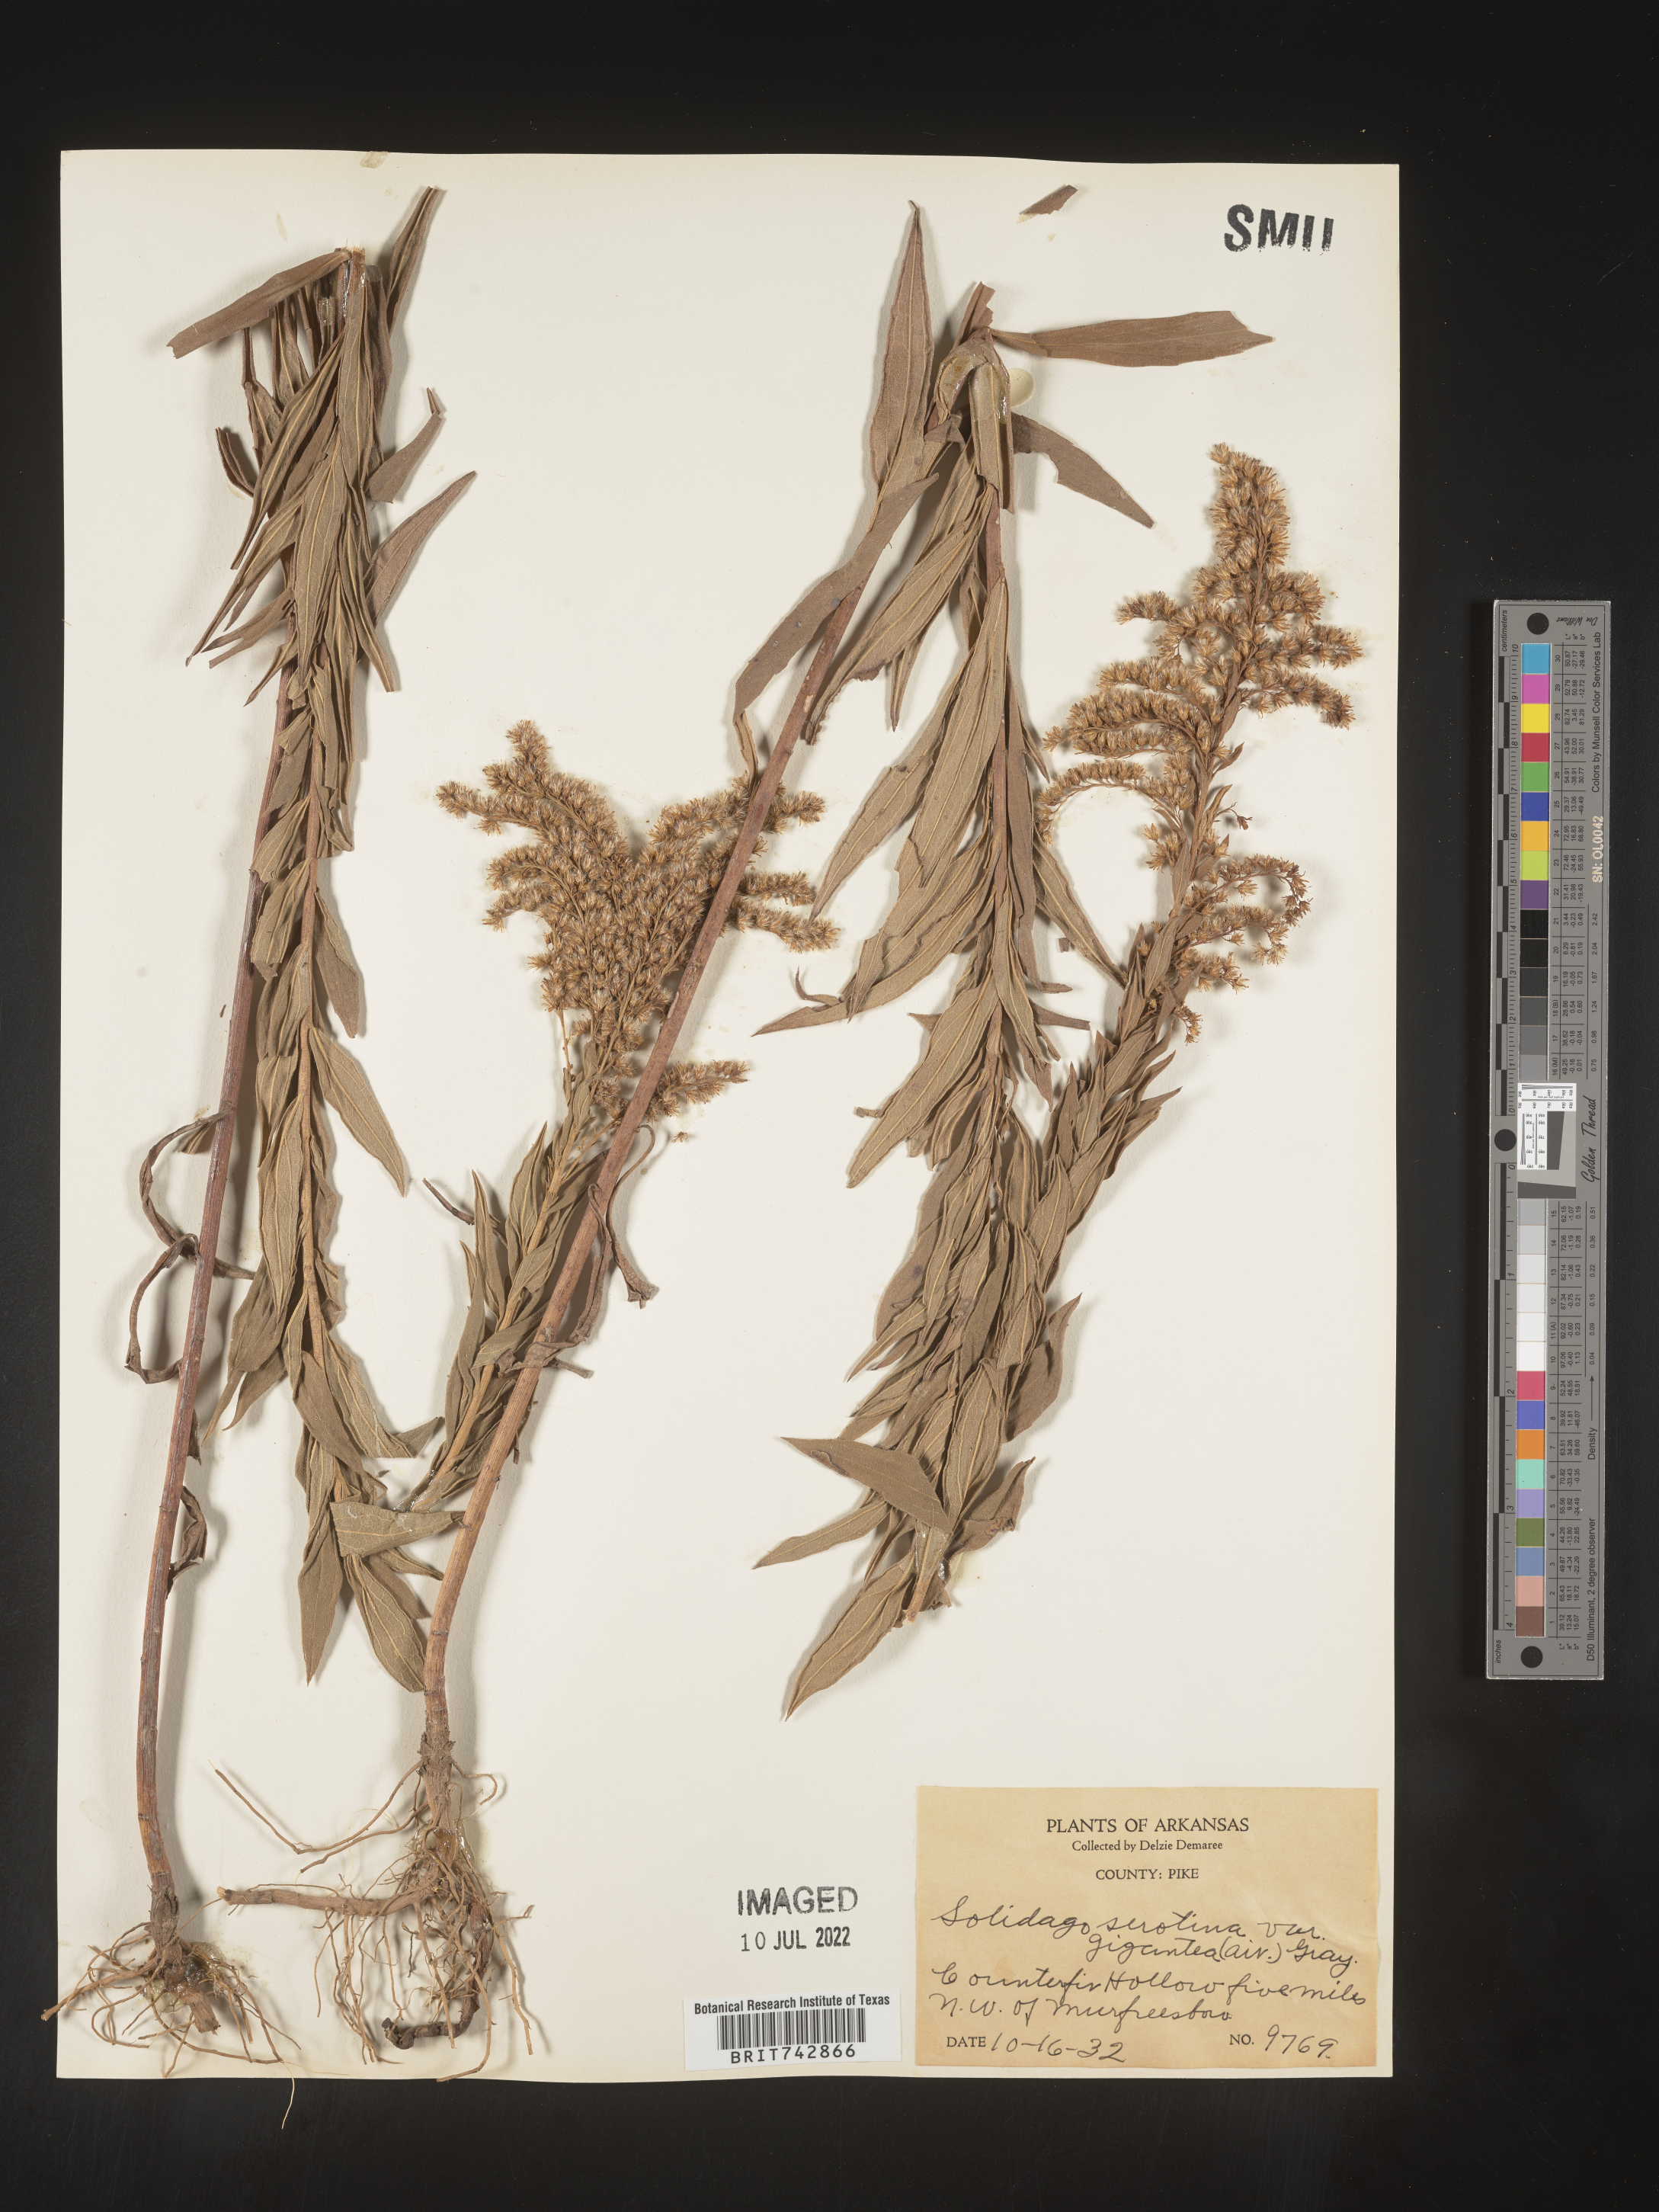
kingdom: Plantae
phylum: Tracheophyta
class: Magnoliopsida
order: Asterales
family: Asteraceae
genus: Solidago
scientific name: Solidago altissima
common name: Late goldenrod
